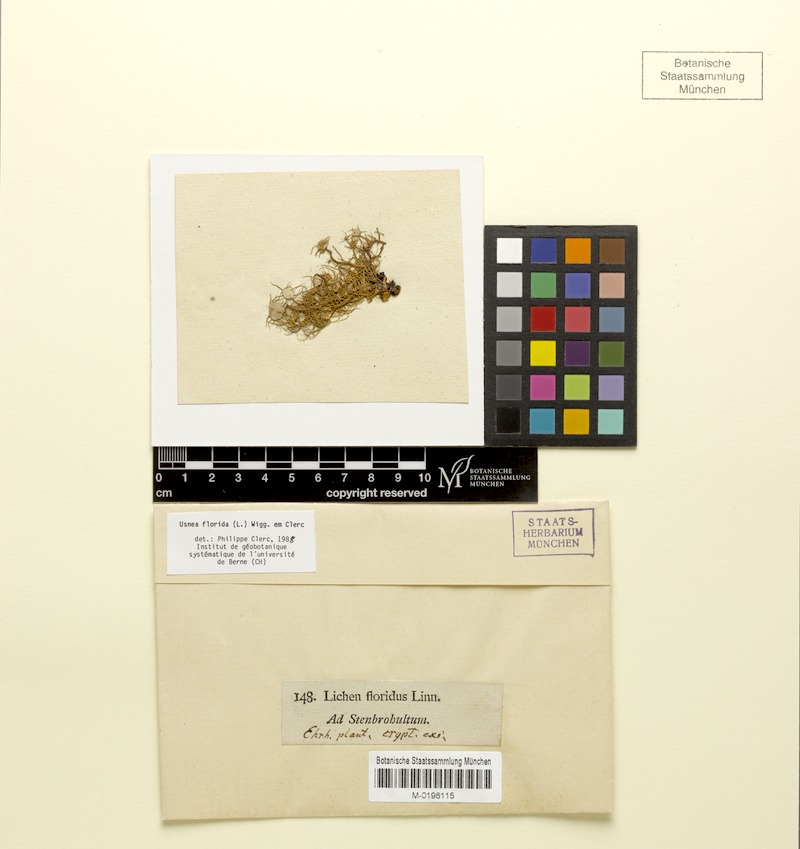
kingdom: Fungi
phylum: Ascomycota
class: Lecanoromycetes
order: Lecanorales
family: Parmeliaceae
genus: Usnea
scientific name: Usnea florida
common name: Witches' whiskers lichen
